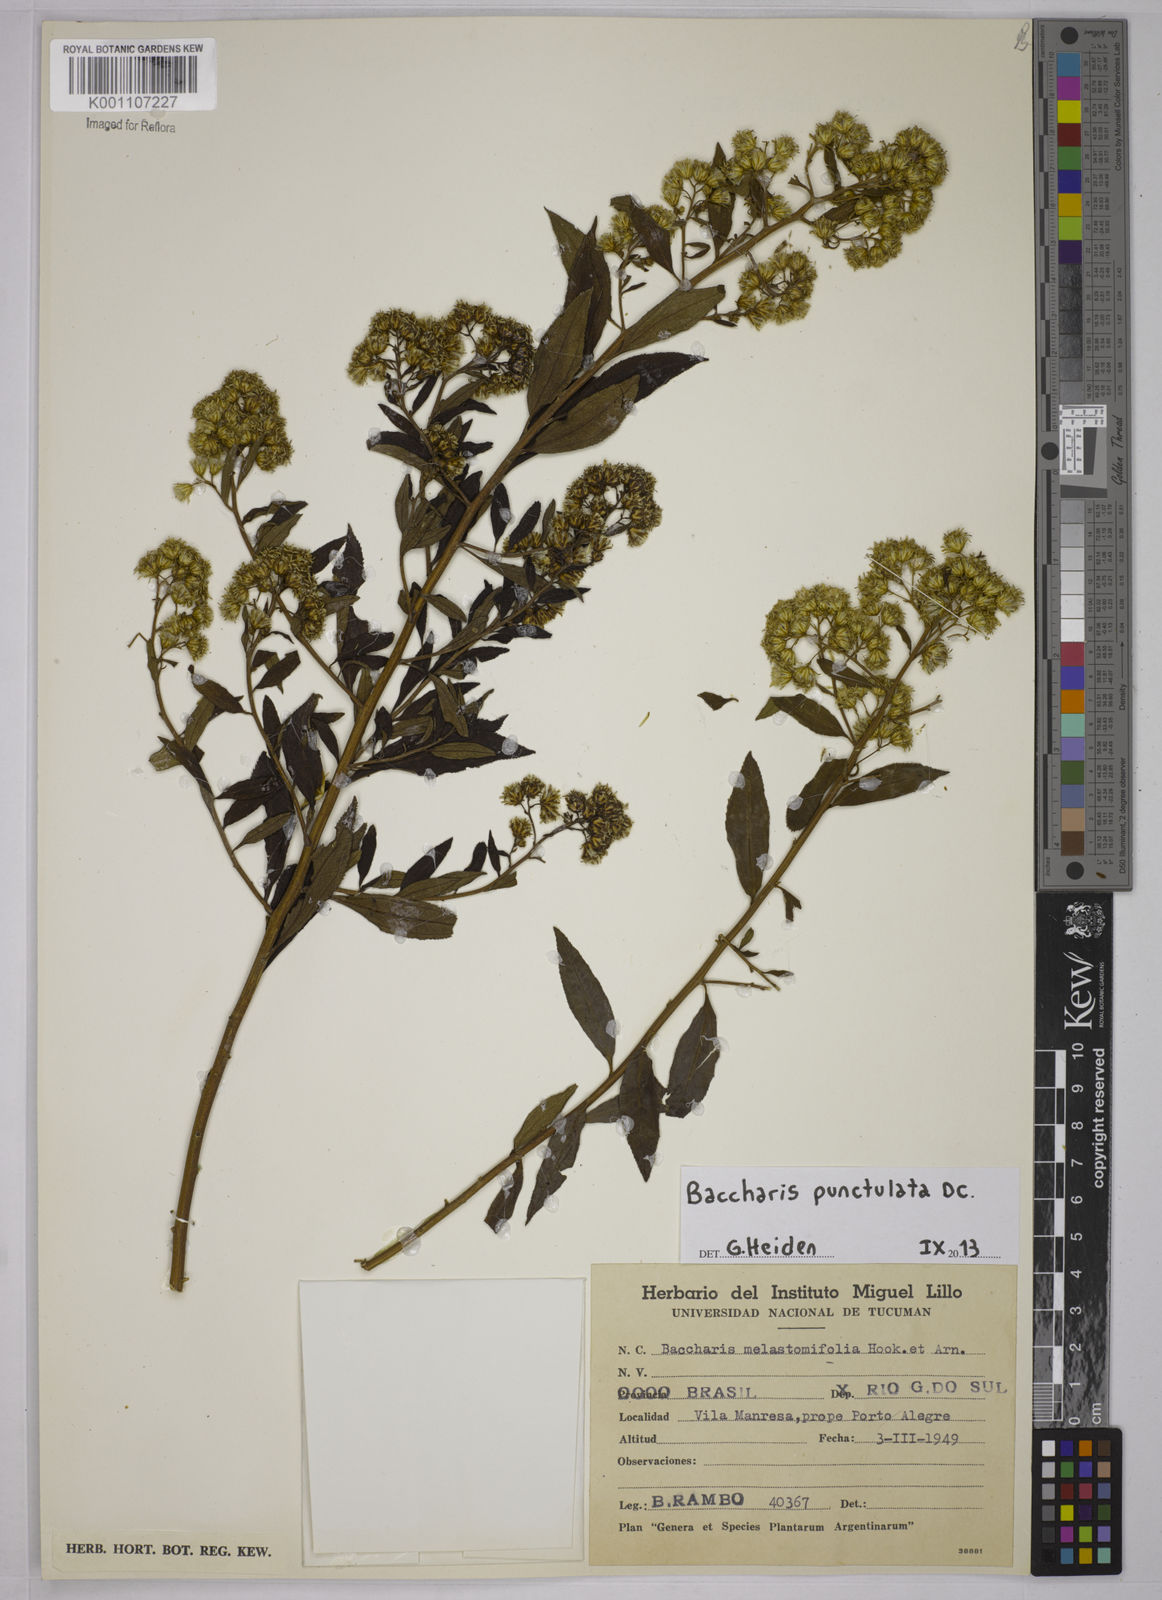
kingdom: Plantae
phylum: Tracheophyta
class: Magnoliopsida
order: Asterales
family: Asteraceae
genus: Baccharis
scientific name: Baccharis punctulata
